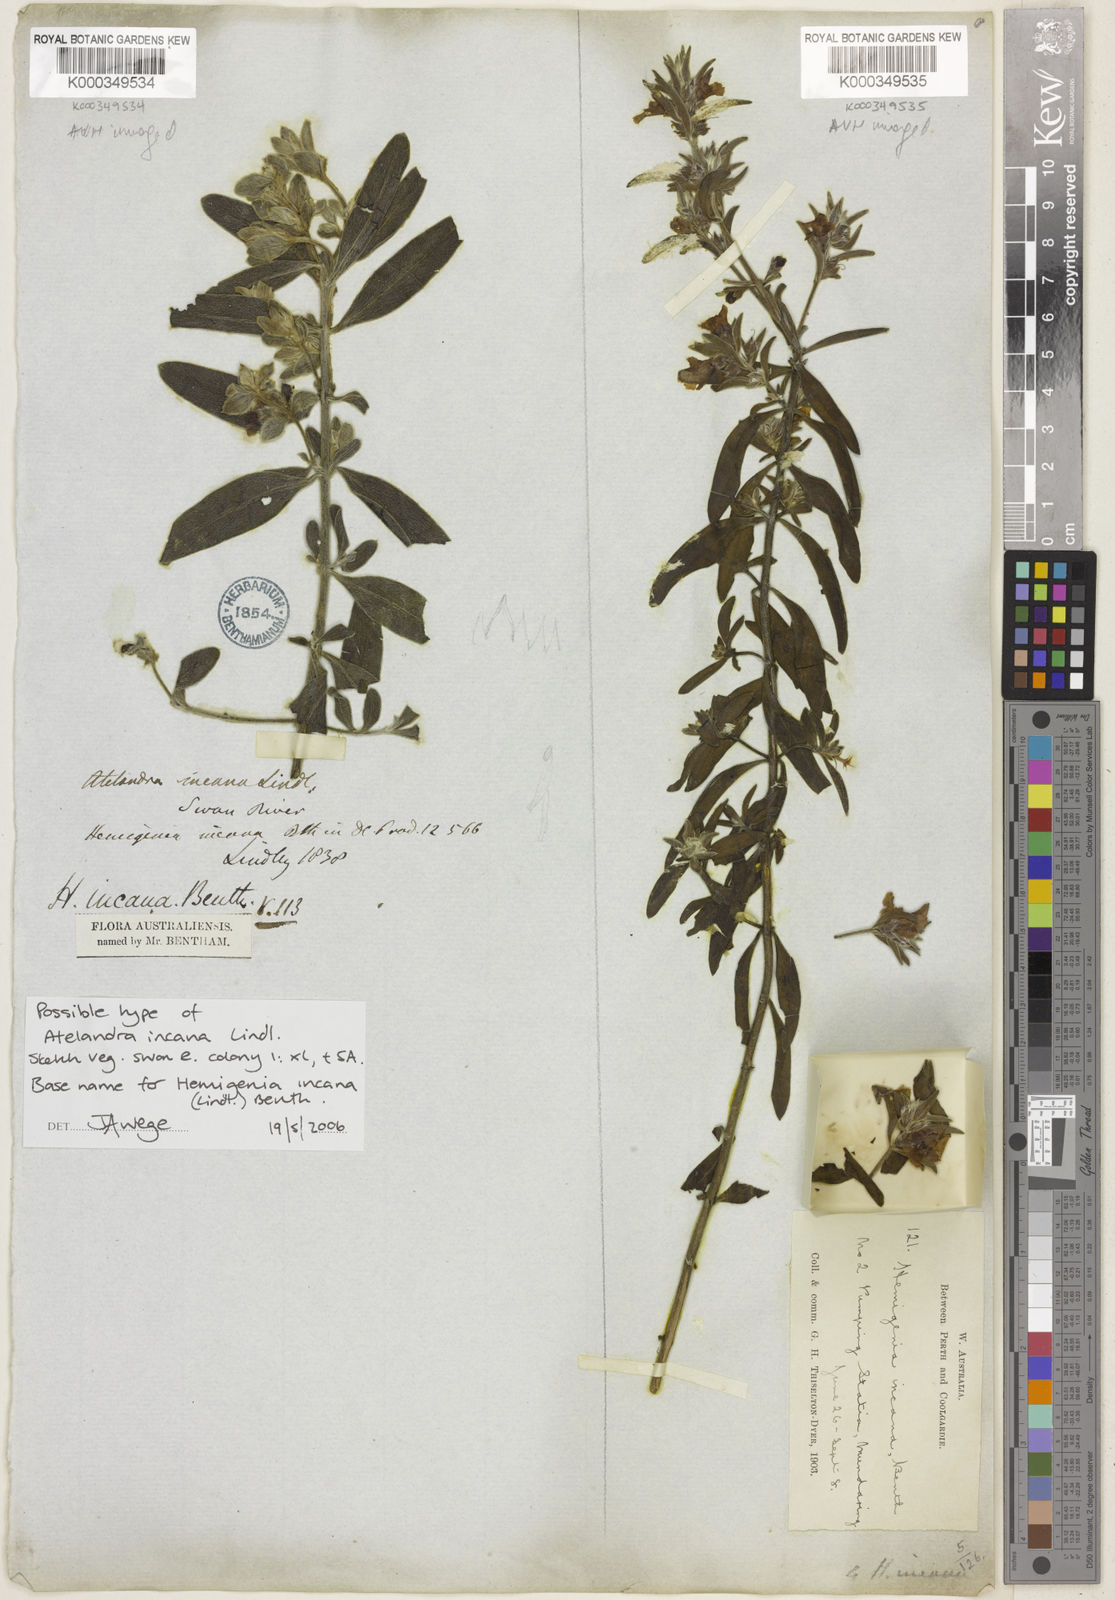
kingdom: Plantae
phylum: Tracheophyta
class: Magnoliopsida
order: Lamiales
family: Lamiaceae
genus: Hemigenia
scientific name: Hemigenia incana
